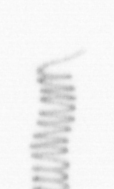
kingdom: Chromista
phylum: Ochrophyta
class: Bacillariophyceae
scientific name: Bacillariophyceae
